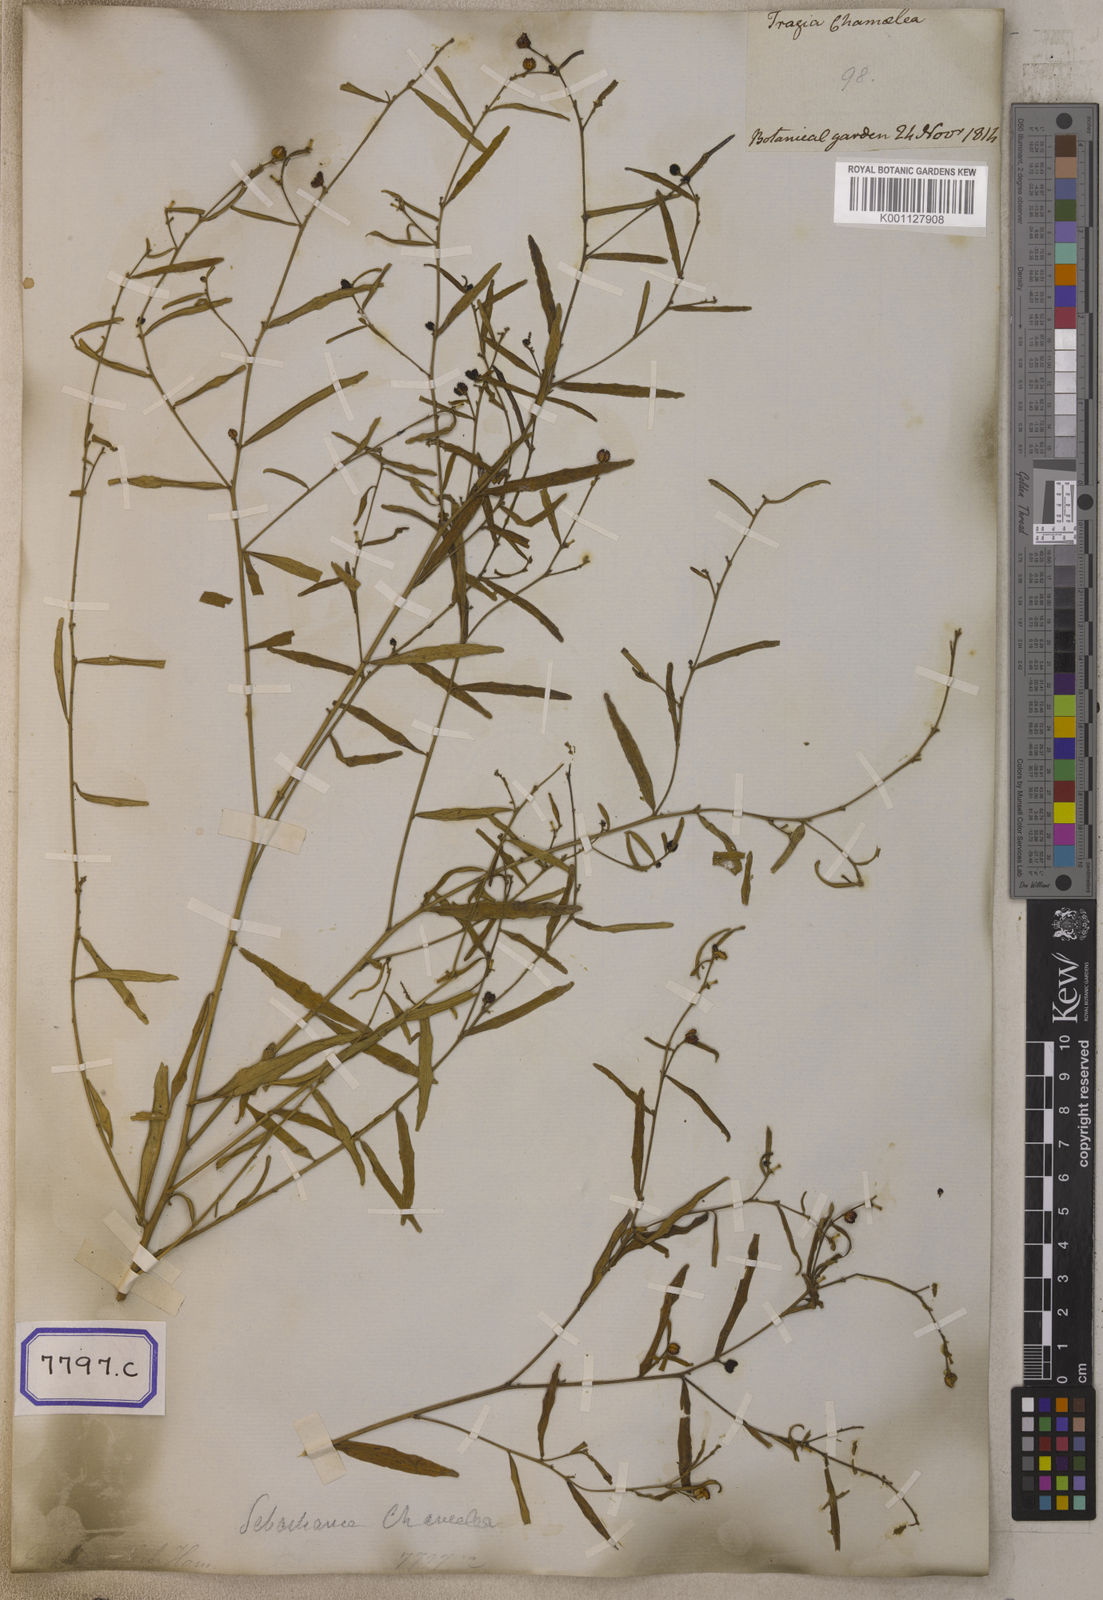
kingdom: Plantae
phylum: Tracheophyta
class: Magnoliopsida
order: Malpighiales
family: Euphorbiaceae
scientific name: Euphorbiaceae
